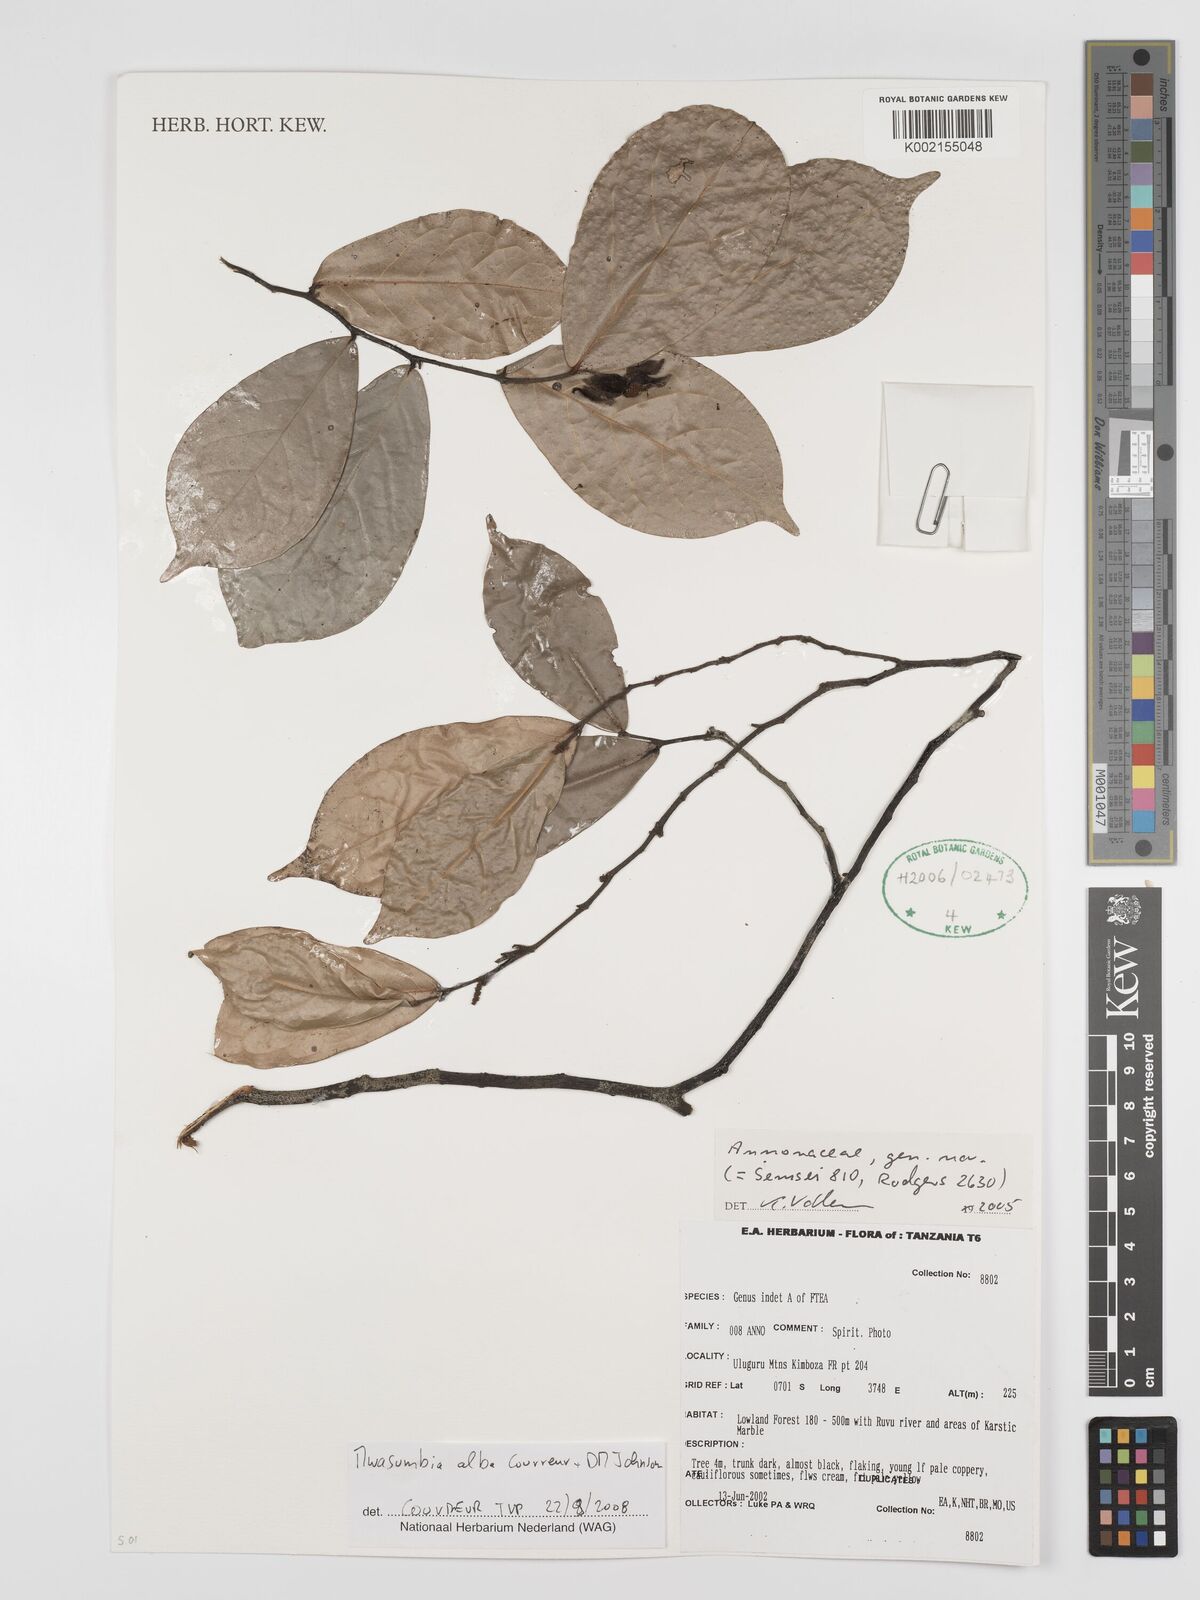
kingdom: Plantae
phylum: Tracheophyta
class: Magnoliopsida
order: Magnoliales
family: Annonaceae
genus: Mwasumbia
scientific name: Mwasumbia alba
